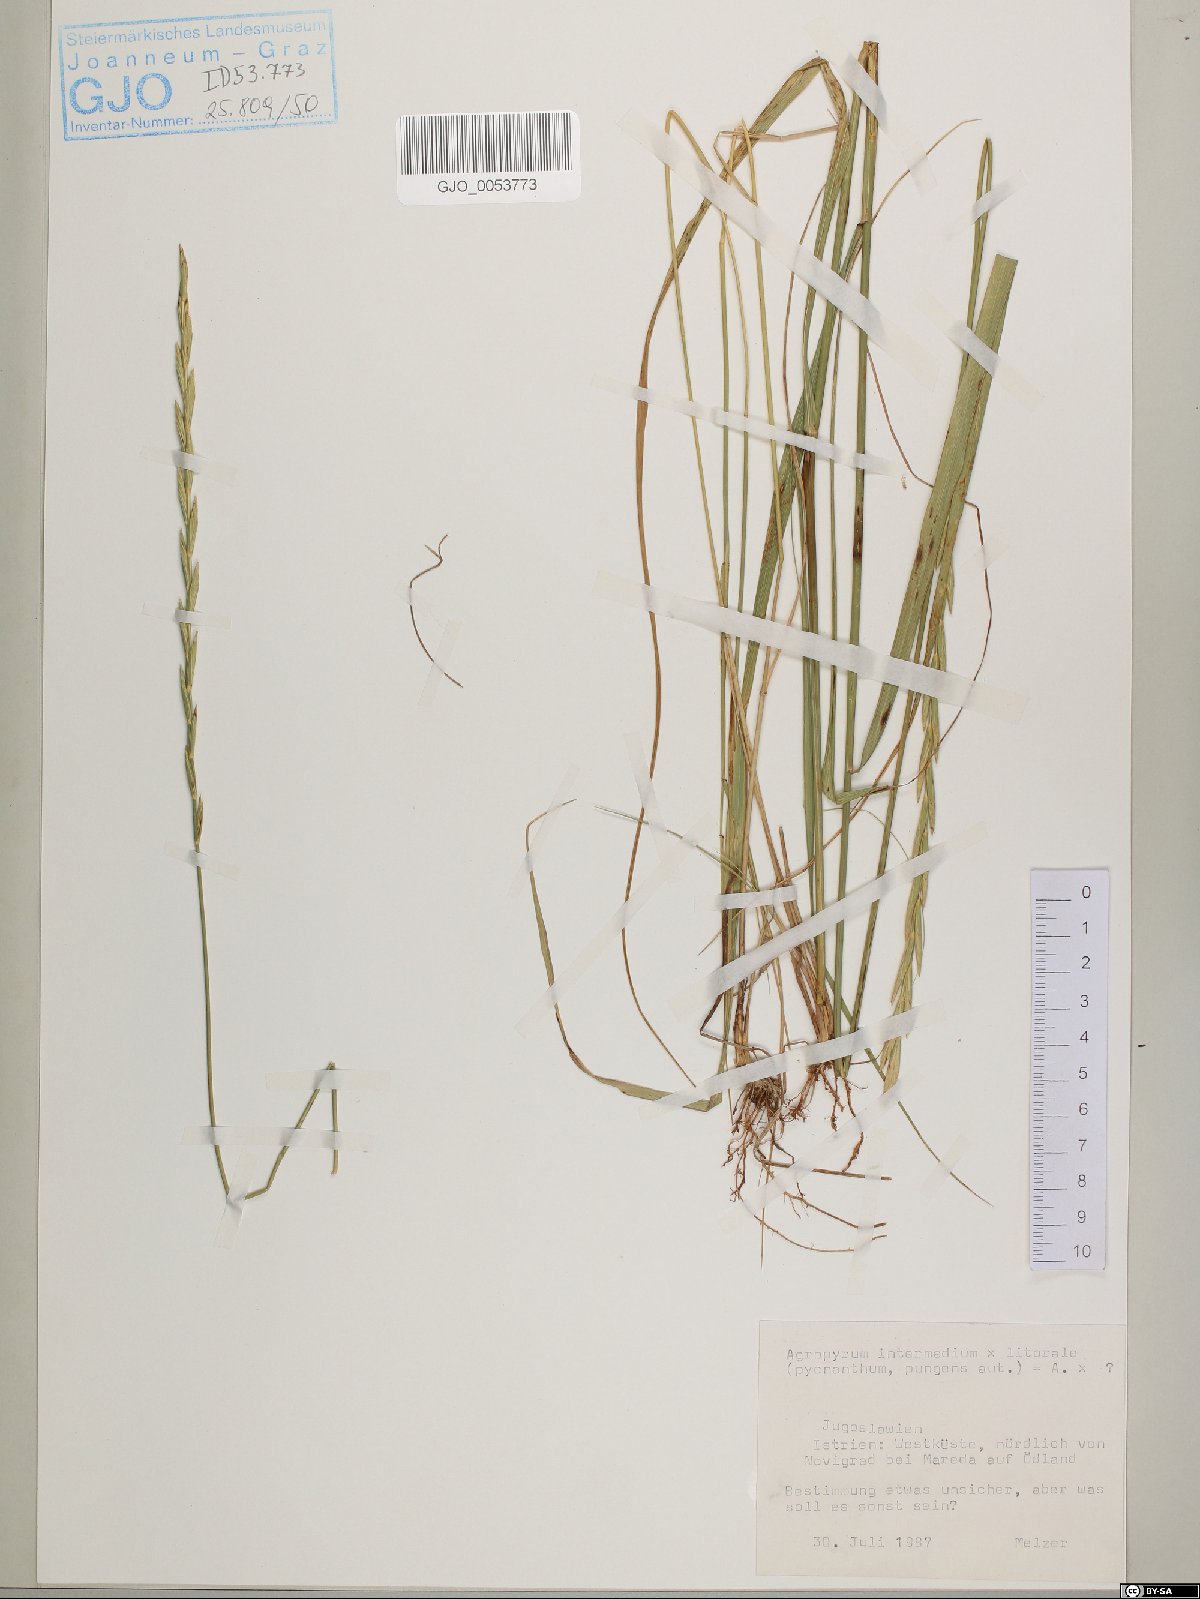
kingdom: Plantae
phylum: Tracheophyta
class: Liliopsida
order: Poales
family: Poaceae
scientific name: Poaceae
